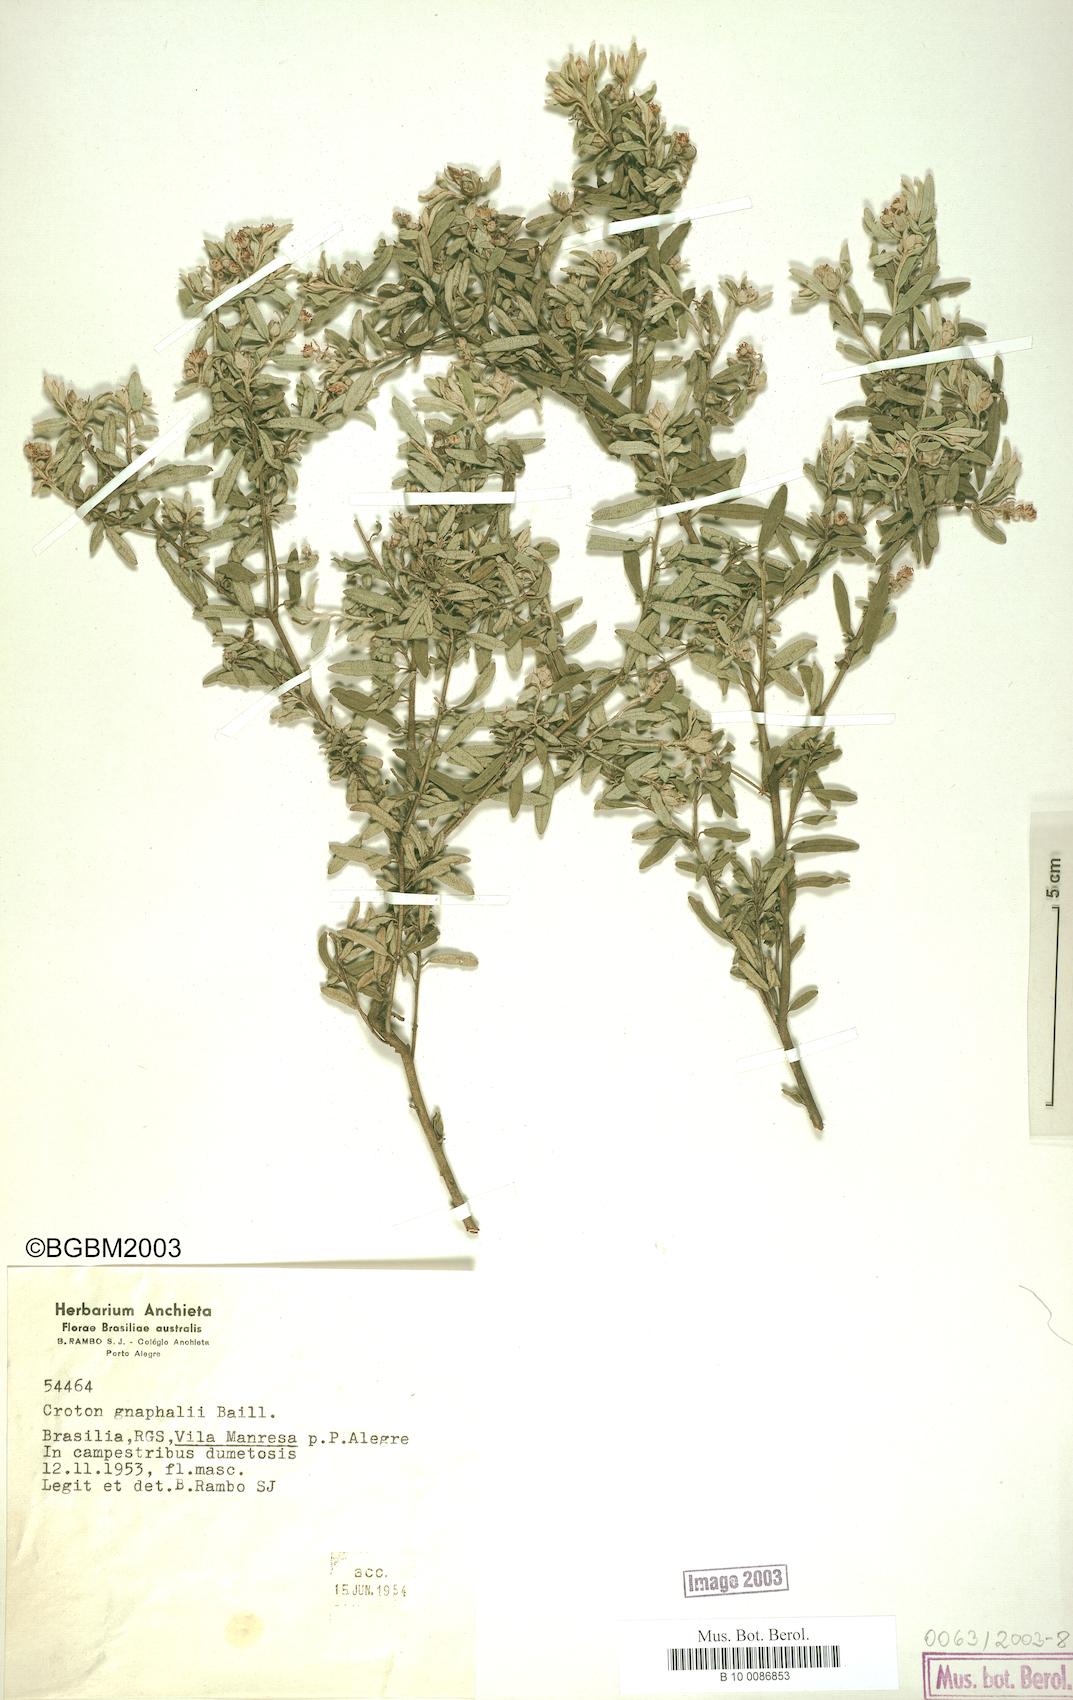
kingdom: Plantae
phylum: Tracheophyta
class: Magnoliopsida
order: Malpighiales
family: Euphorbiaceae
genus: Croton
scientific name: Croton gnaphalii
